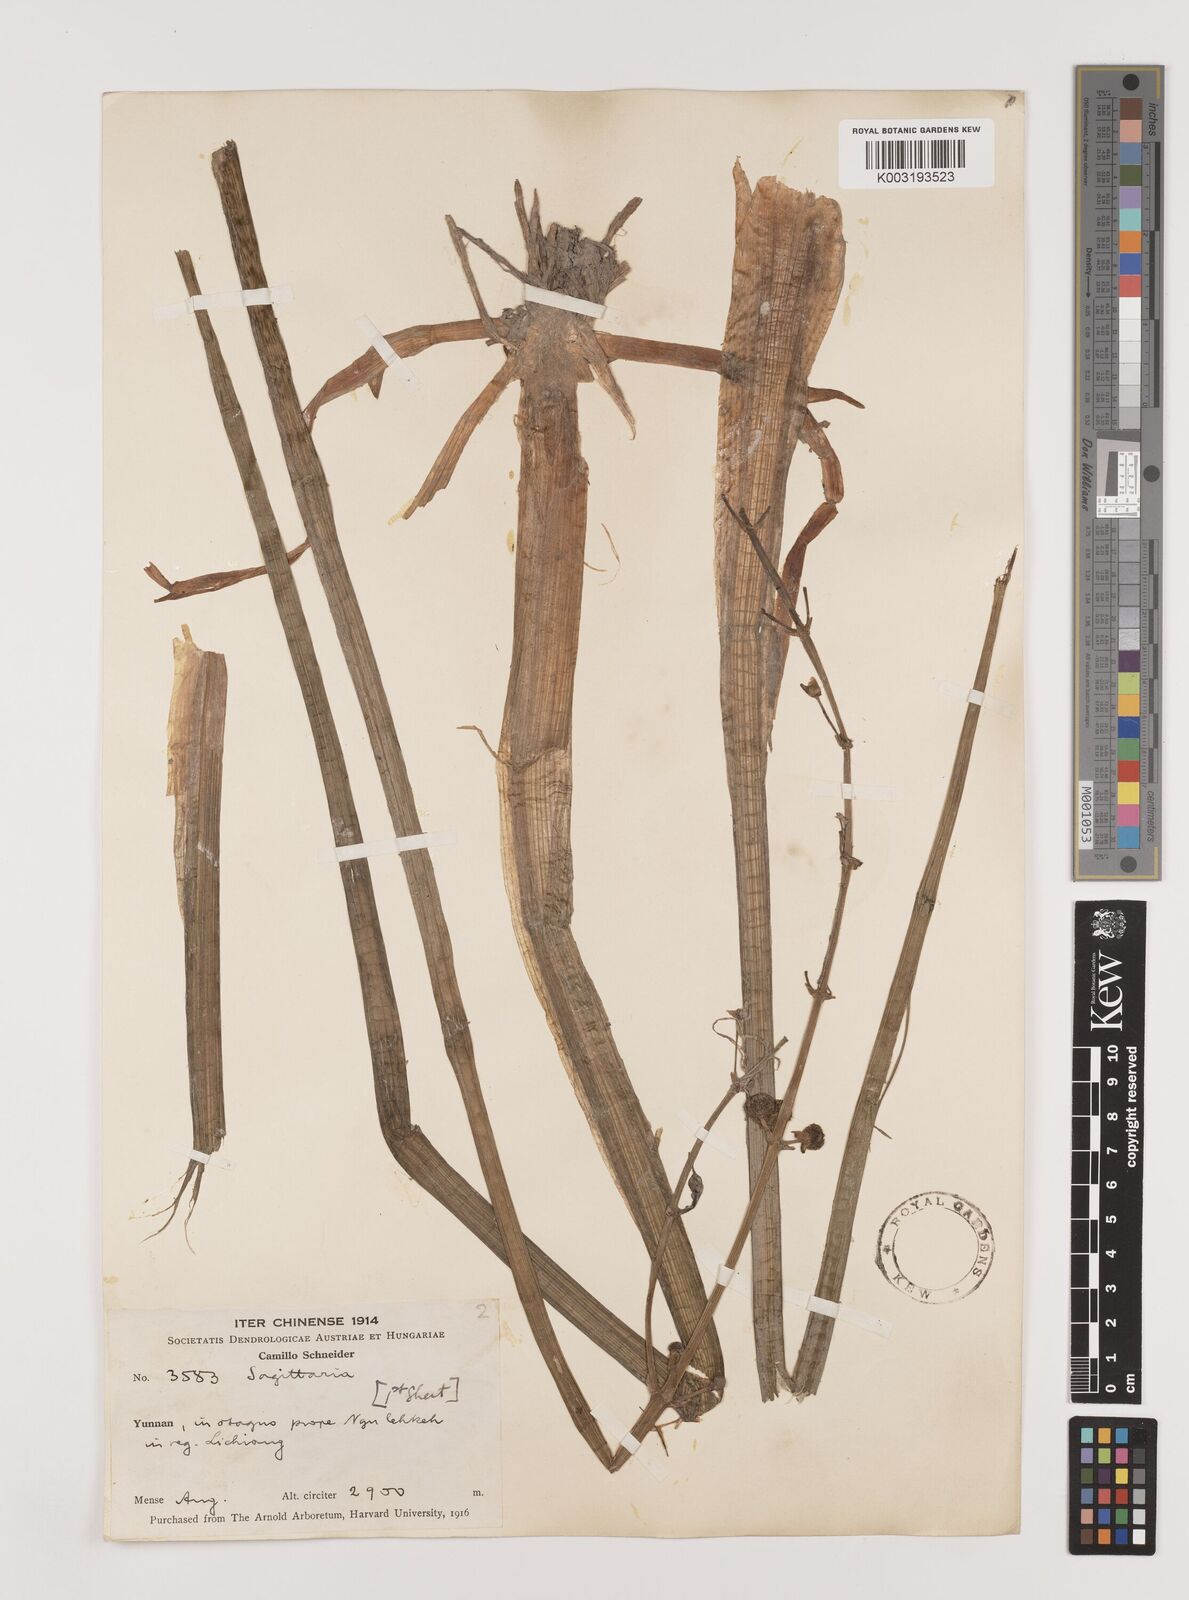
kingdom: Plantae
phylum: Tracheophyta
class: Liliopsida
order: Alismatales
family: Alismataceae
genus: Sagittaria
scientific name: Sagittaria sagittifolia
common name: Arrowhead
